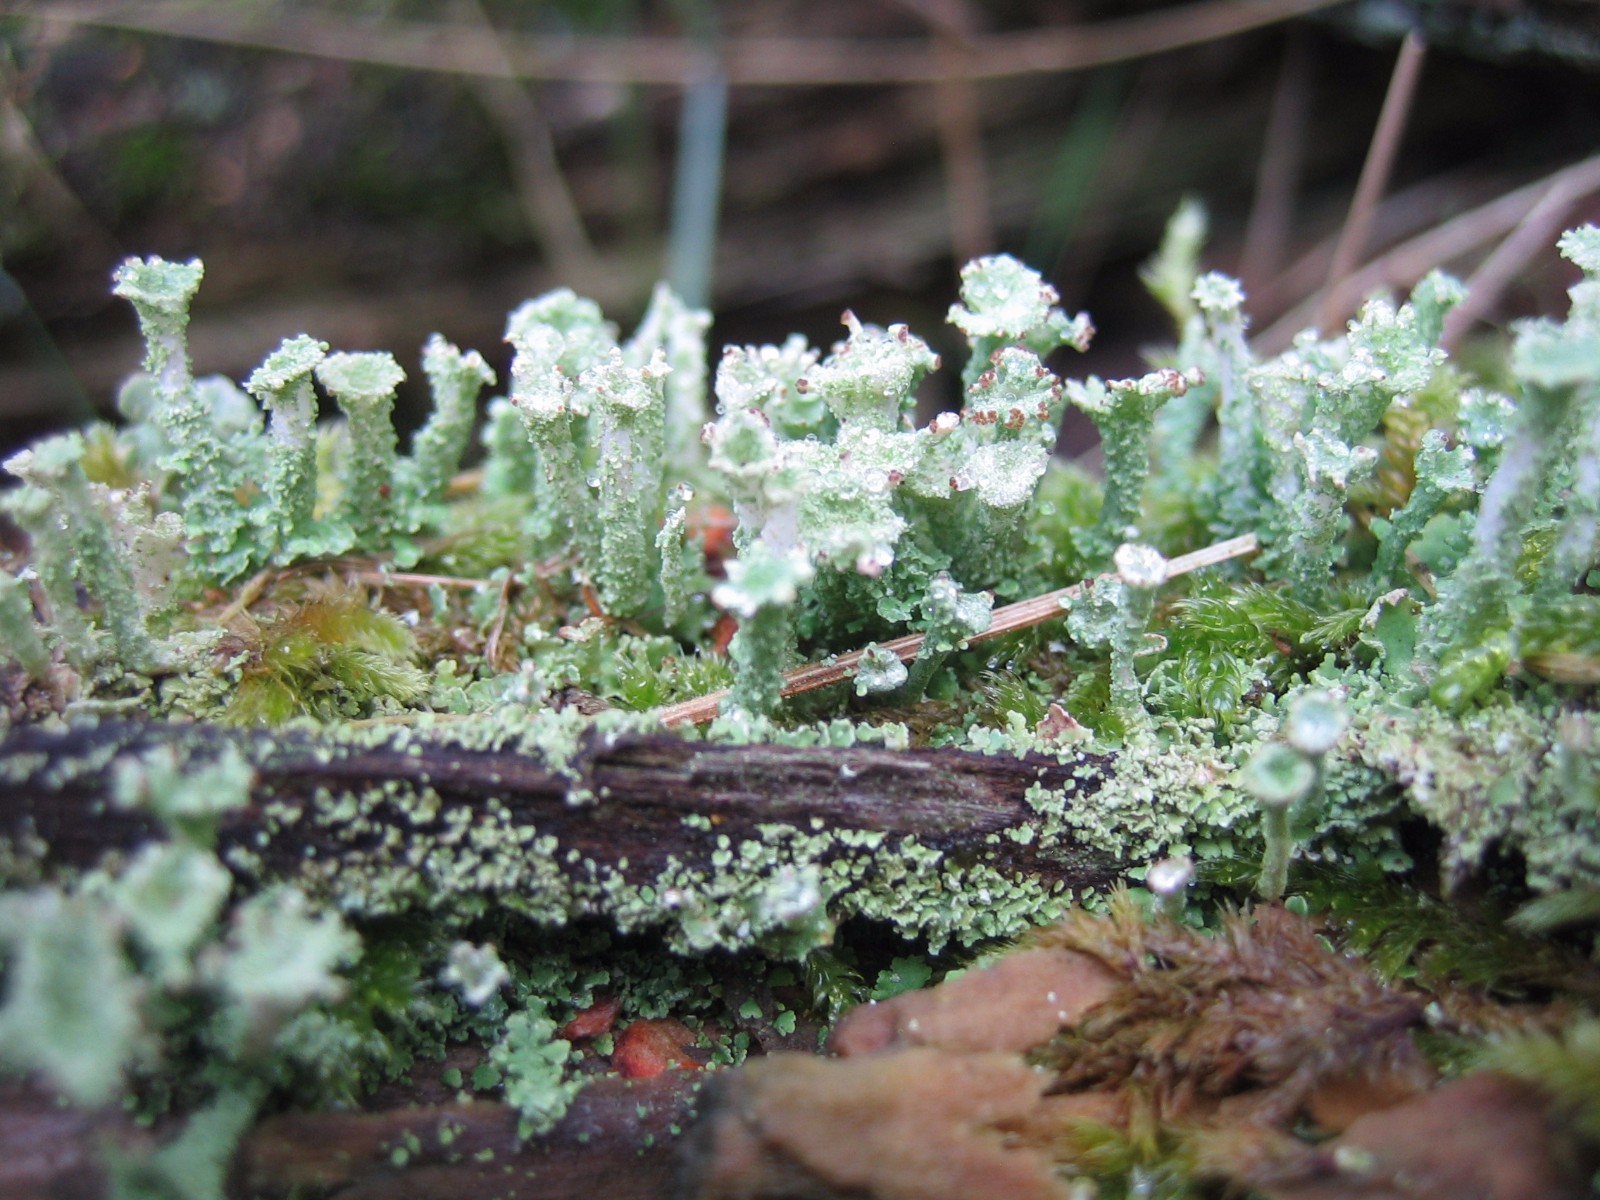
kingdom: Fungi
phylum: Ascomycota
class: Lecanoromycetes
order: Lecanorales
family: Cladoniaceae
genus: Cladonia
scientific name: Cladonia
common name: brungrøn bægerlav
